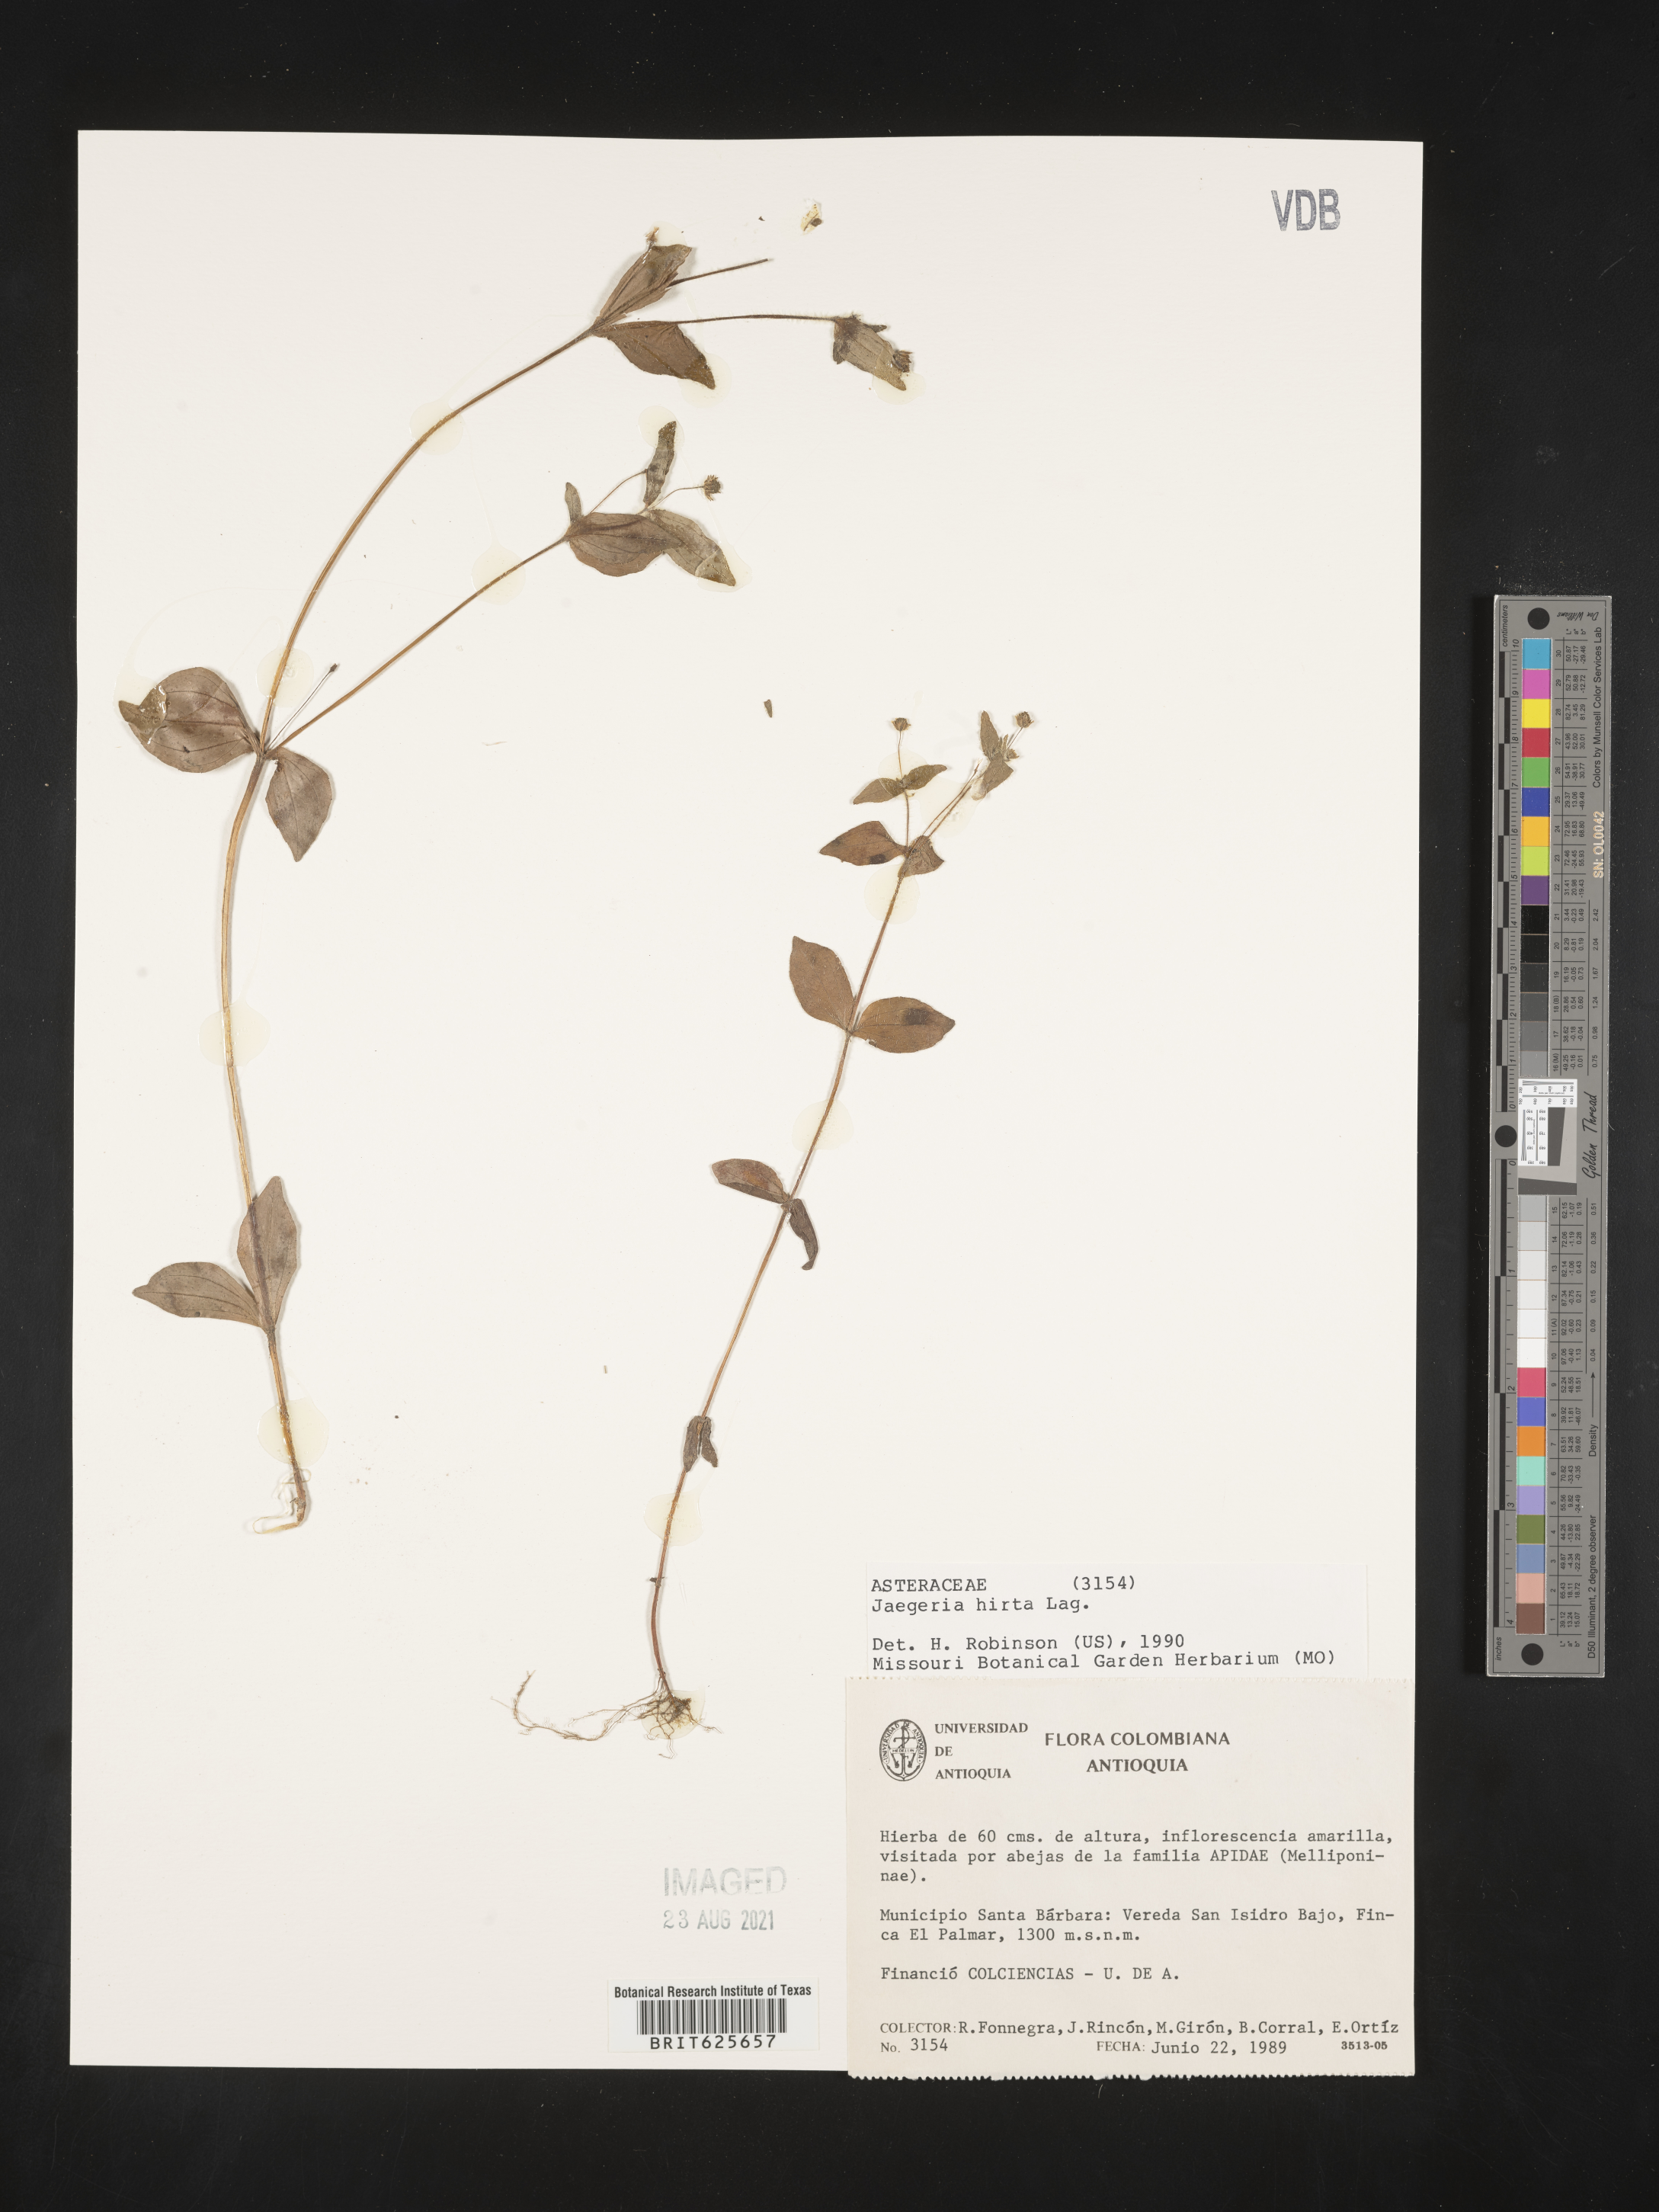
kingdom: Plantae
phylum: Tracheophyta
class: Magnoliopsida
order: Asterales
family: Asteraceae
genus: Jaegeria
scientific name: Jaegeria hirta
